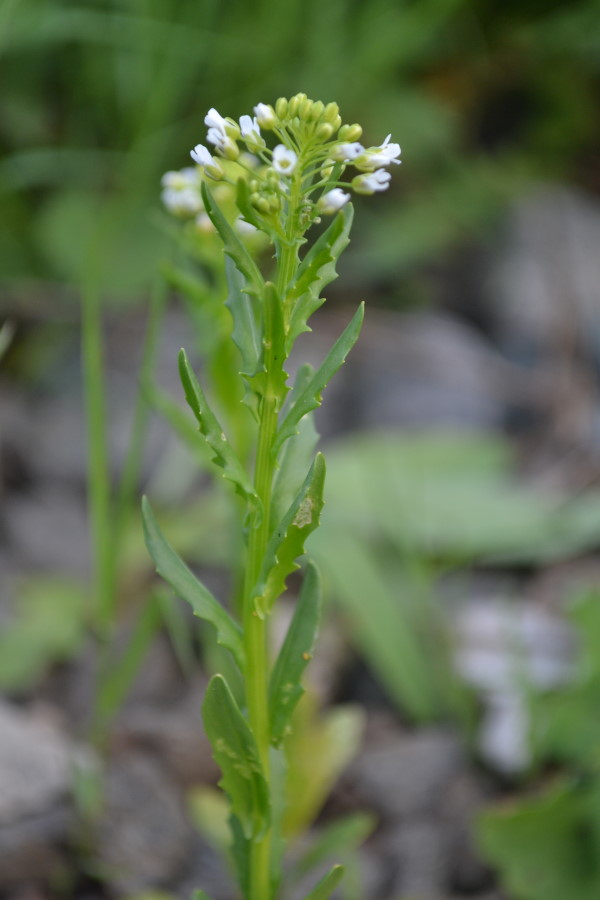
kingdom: Plantae
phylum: Tracheophyta
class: Magnoliopsida
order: Brassicales
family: Brassicaceae
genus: Capsella
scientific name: Capsella bursa-pastoris
